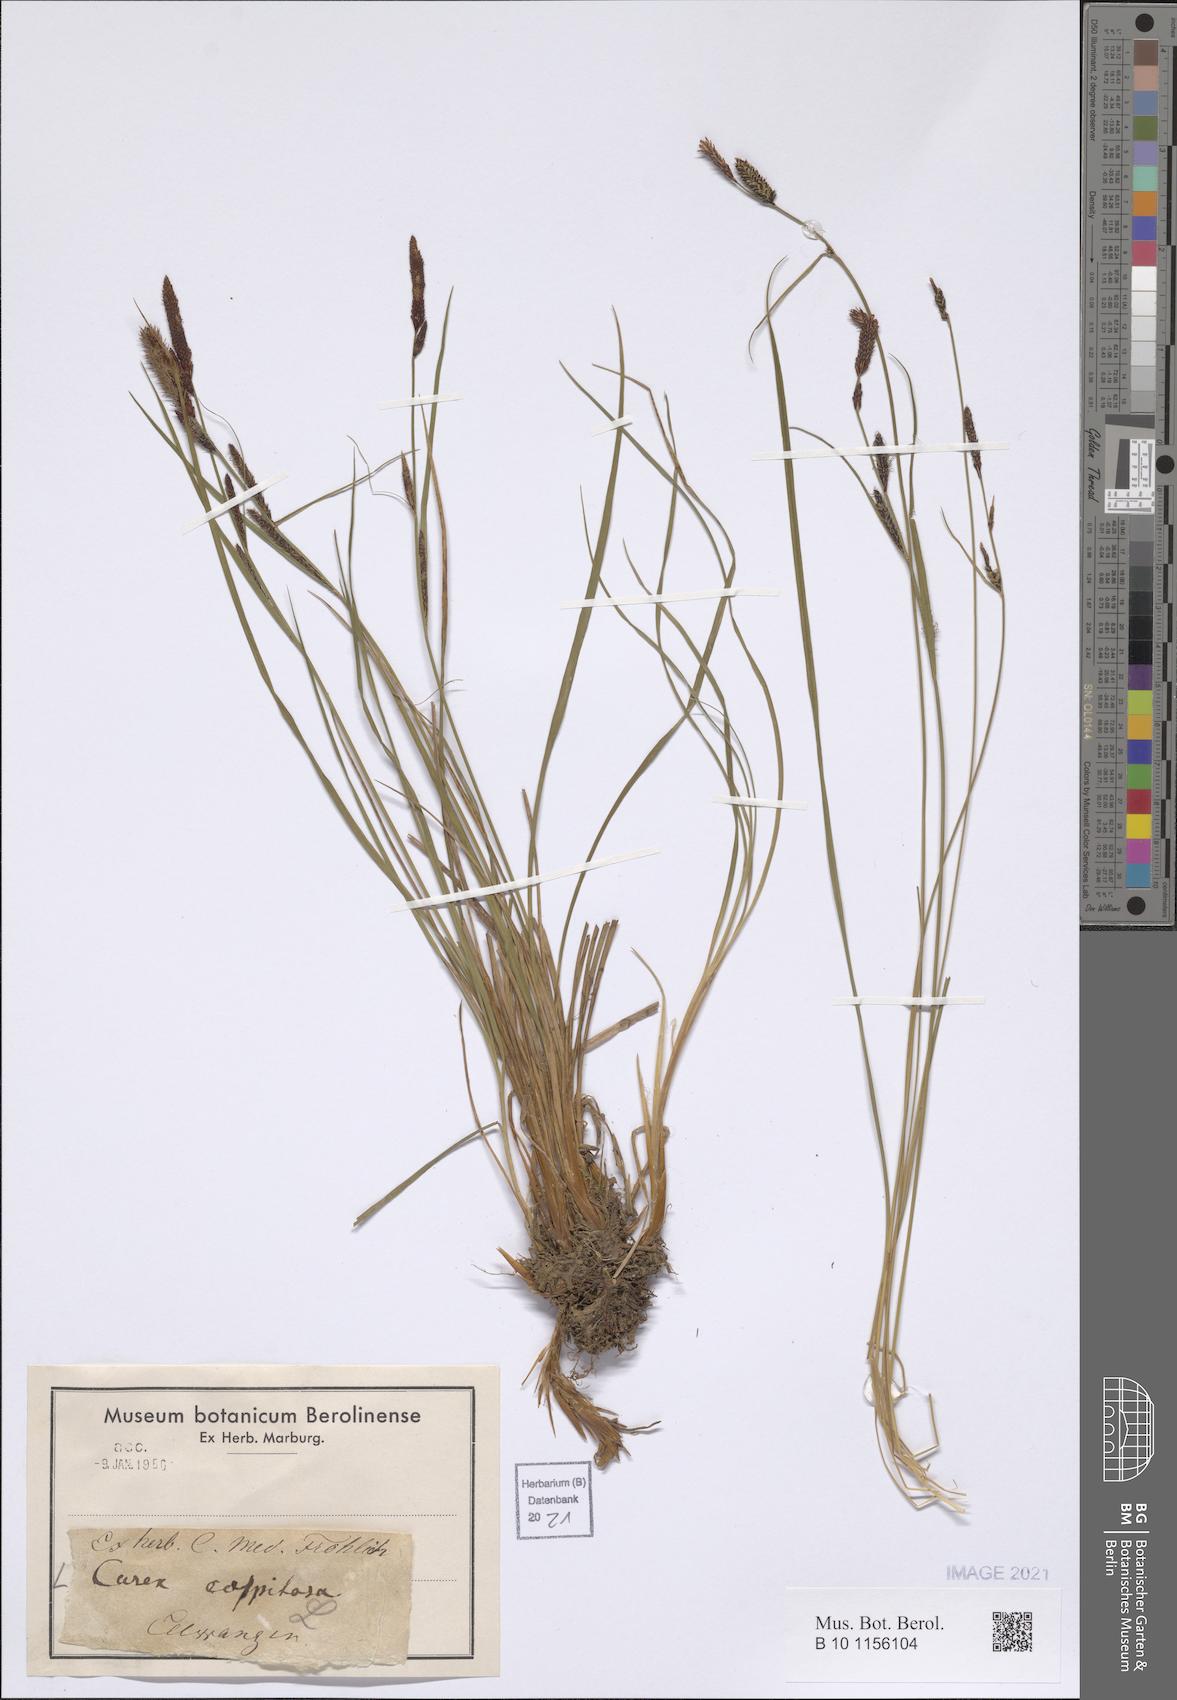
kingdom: Plantae
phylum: Tracheophyta
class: Liliopsida
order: Poales
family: Cyperaceae
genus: Carex
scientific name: Carex cespitosa
